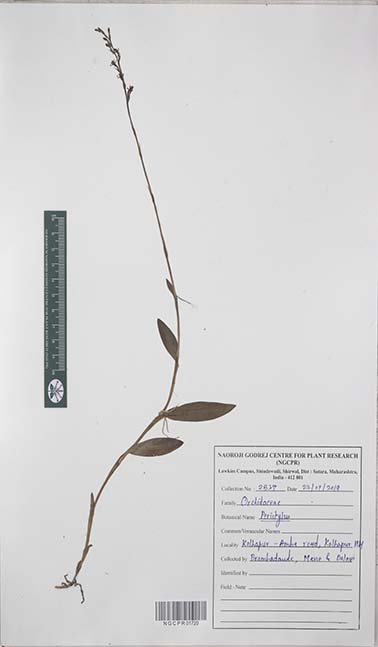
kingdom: Plantae
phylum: Tracheophyta
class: Liliopsida
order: Asparagales
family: Orchidaceae
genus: Peristylus
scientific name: Peristylus
